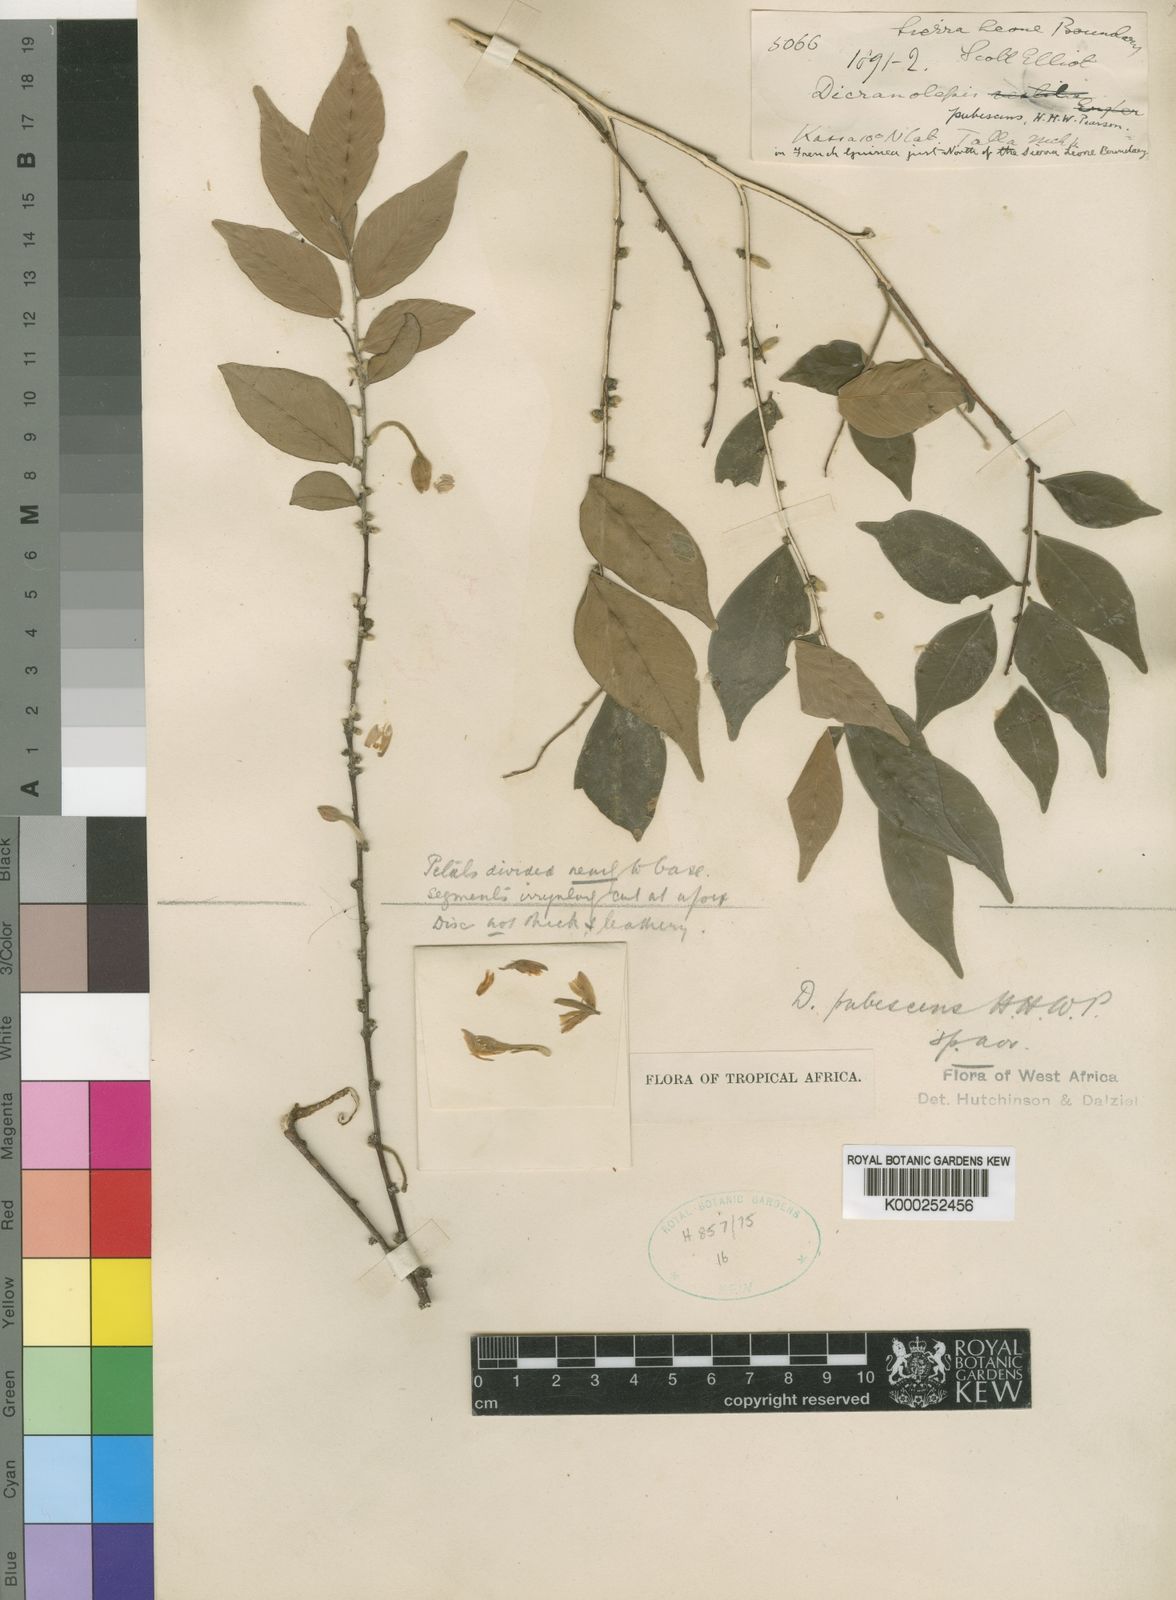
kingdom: Plantae
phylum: Tracheophyta
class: Magnoliopsida
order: Malvales
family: Thymelaeaceae
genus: Dicranolepis
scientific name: Dicranolepis pubescens
